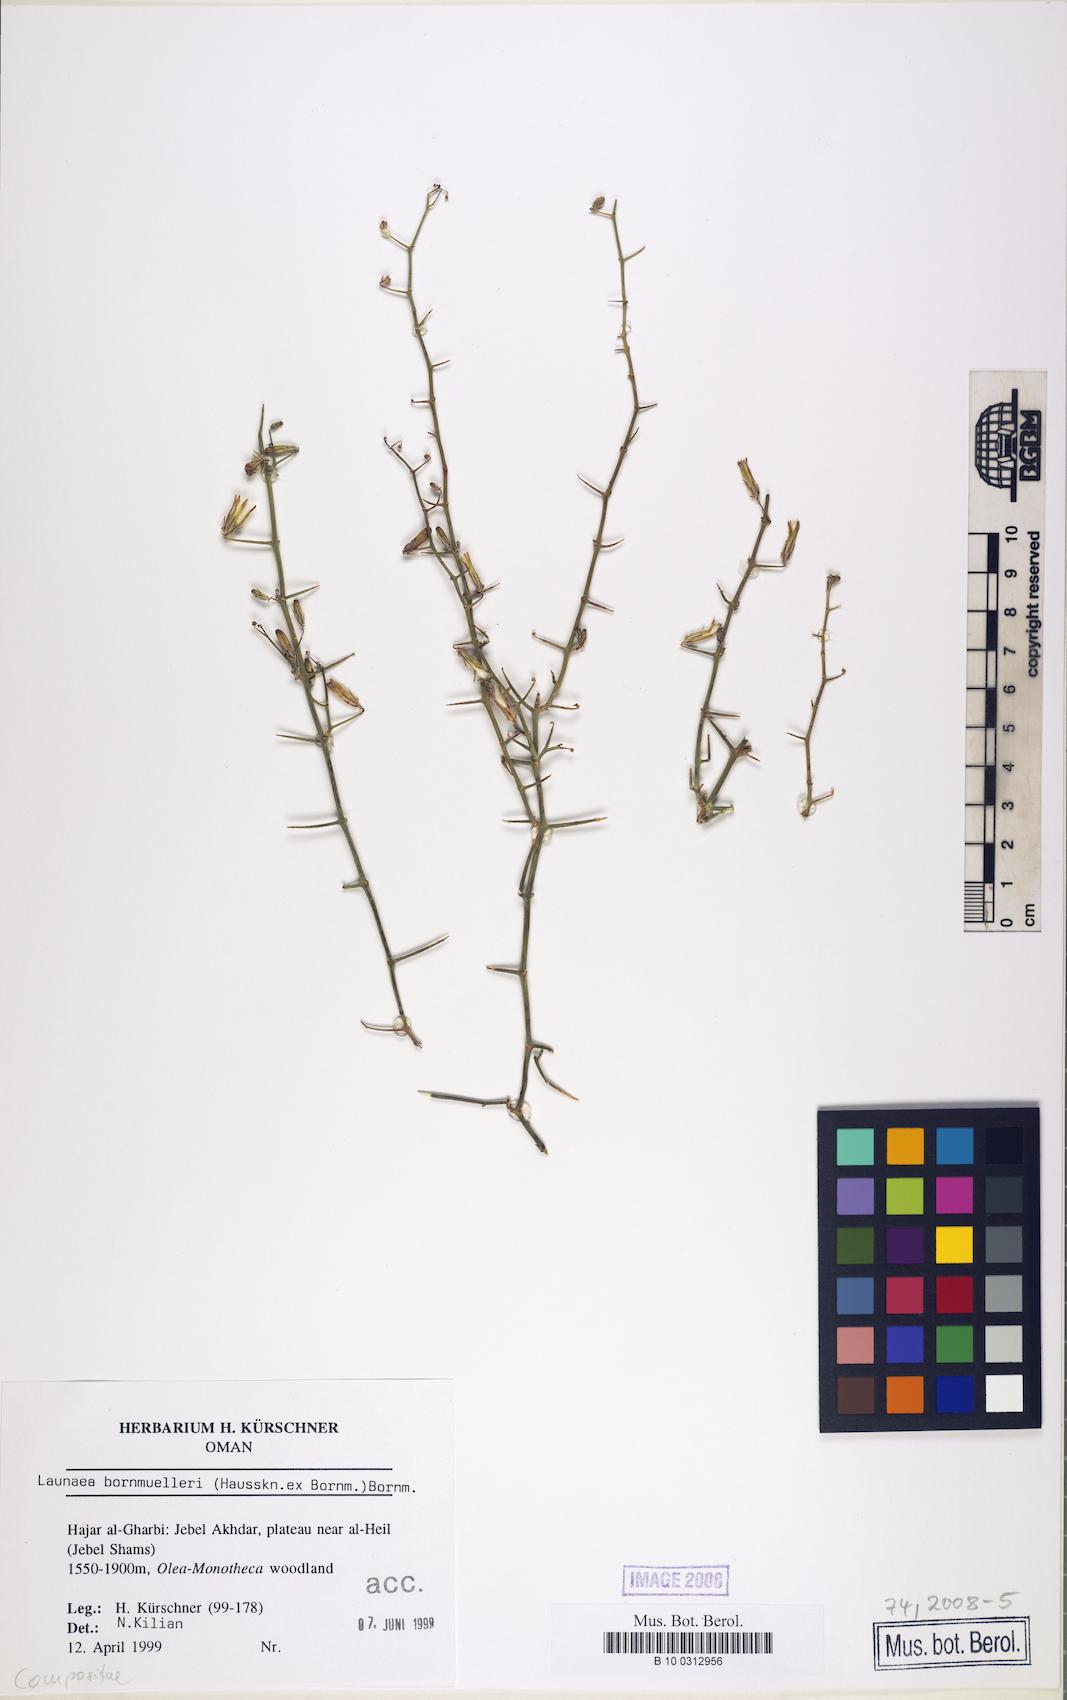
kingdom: Plantae
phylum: Tracheophyta
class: Magnoliopsida
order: Asterales
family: Asteraceae
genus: Launaea
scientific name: Launaea bornmuelleri
